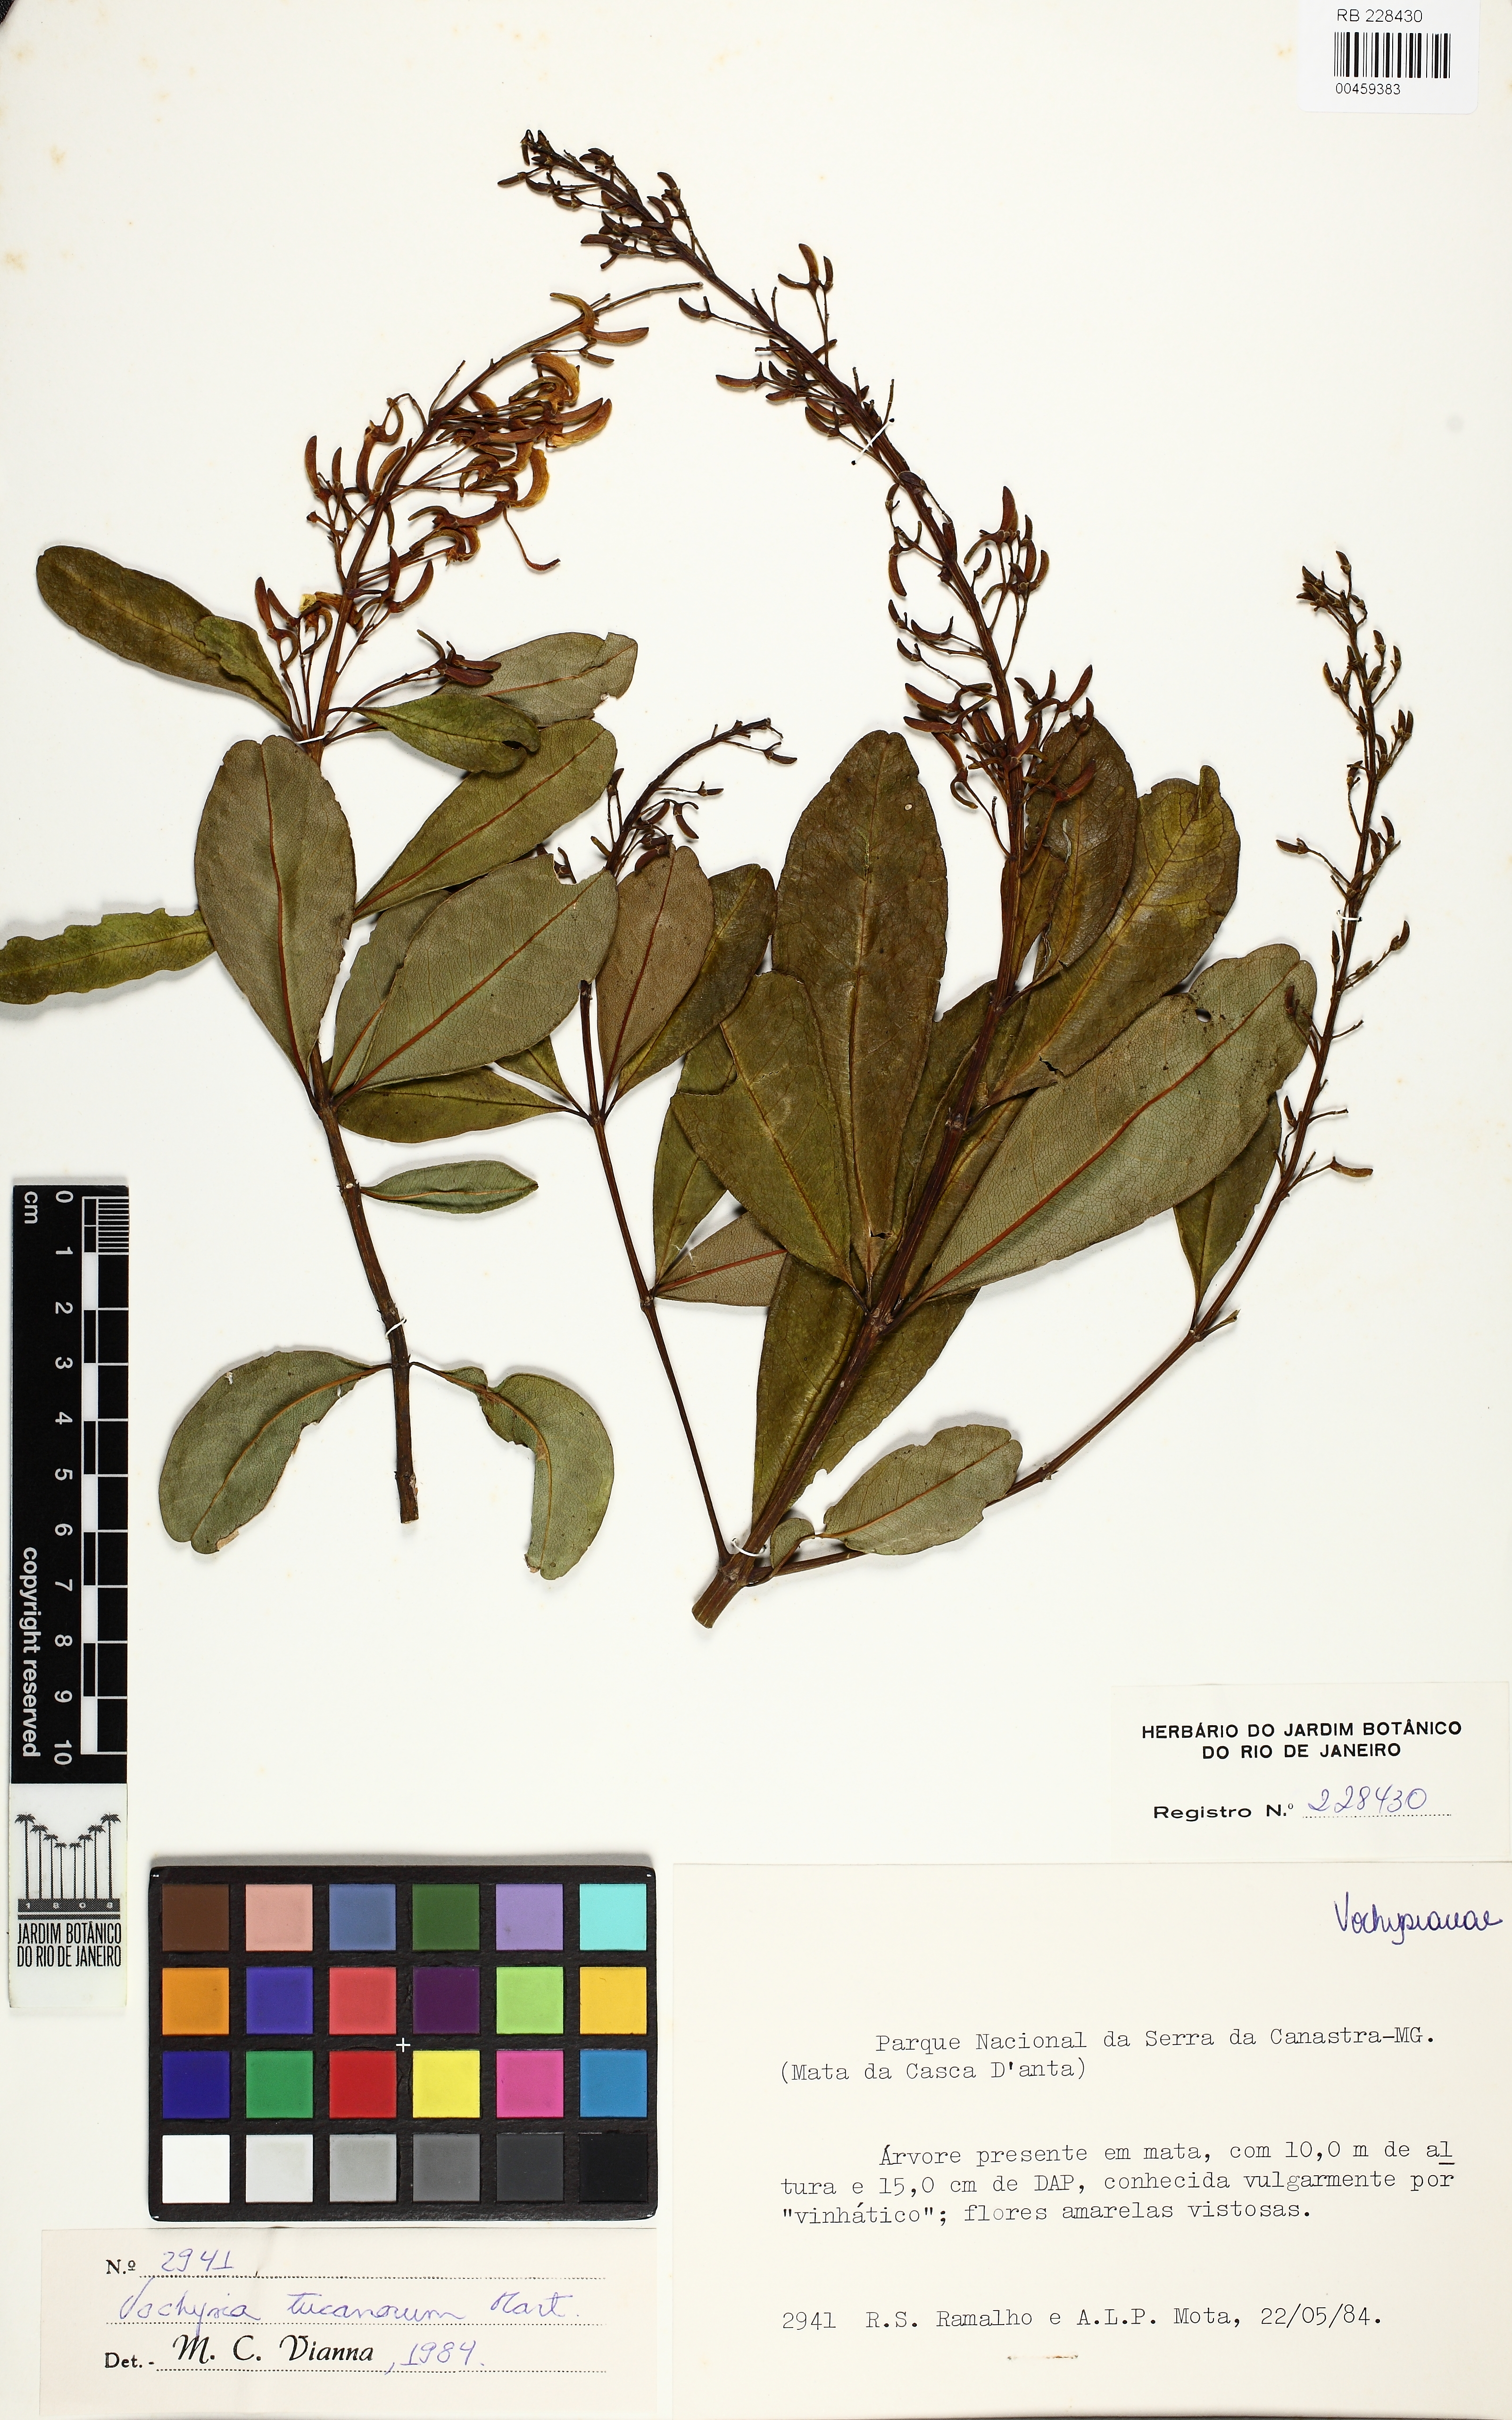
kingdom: Plantae
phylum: Tracheophyta
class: Magnoliopsida
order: Myrtales
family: Vochysiaceae
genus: Vochysia
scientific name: Vochysia tucanorum
